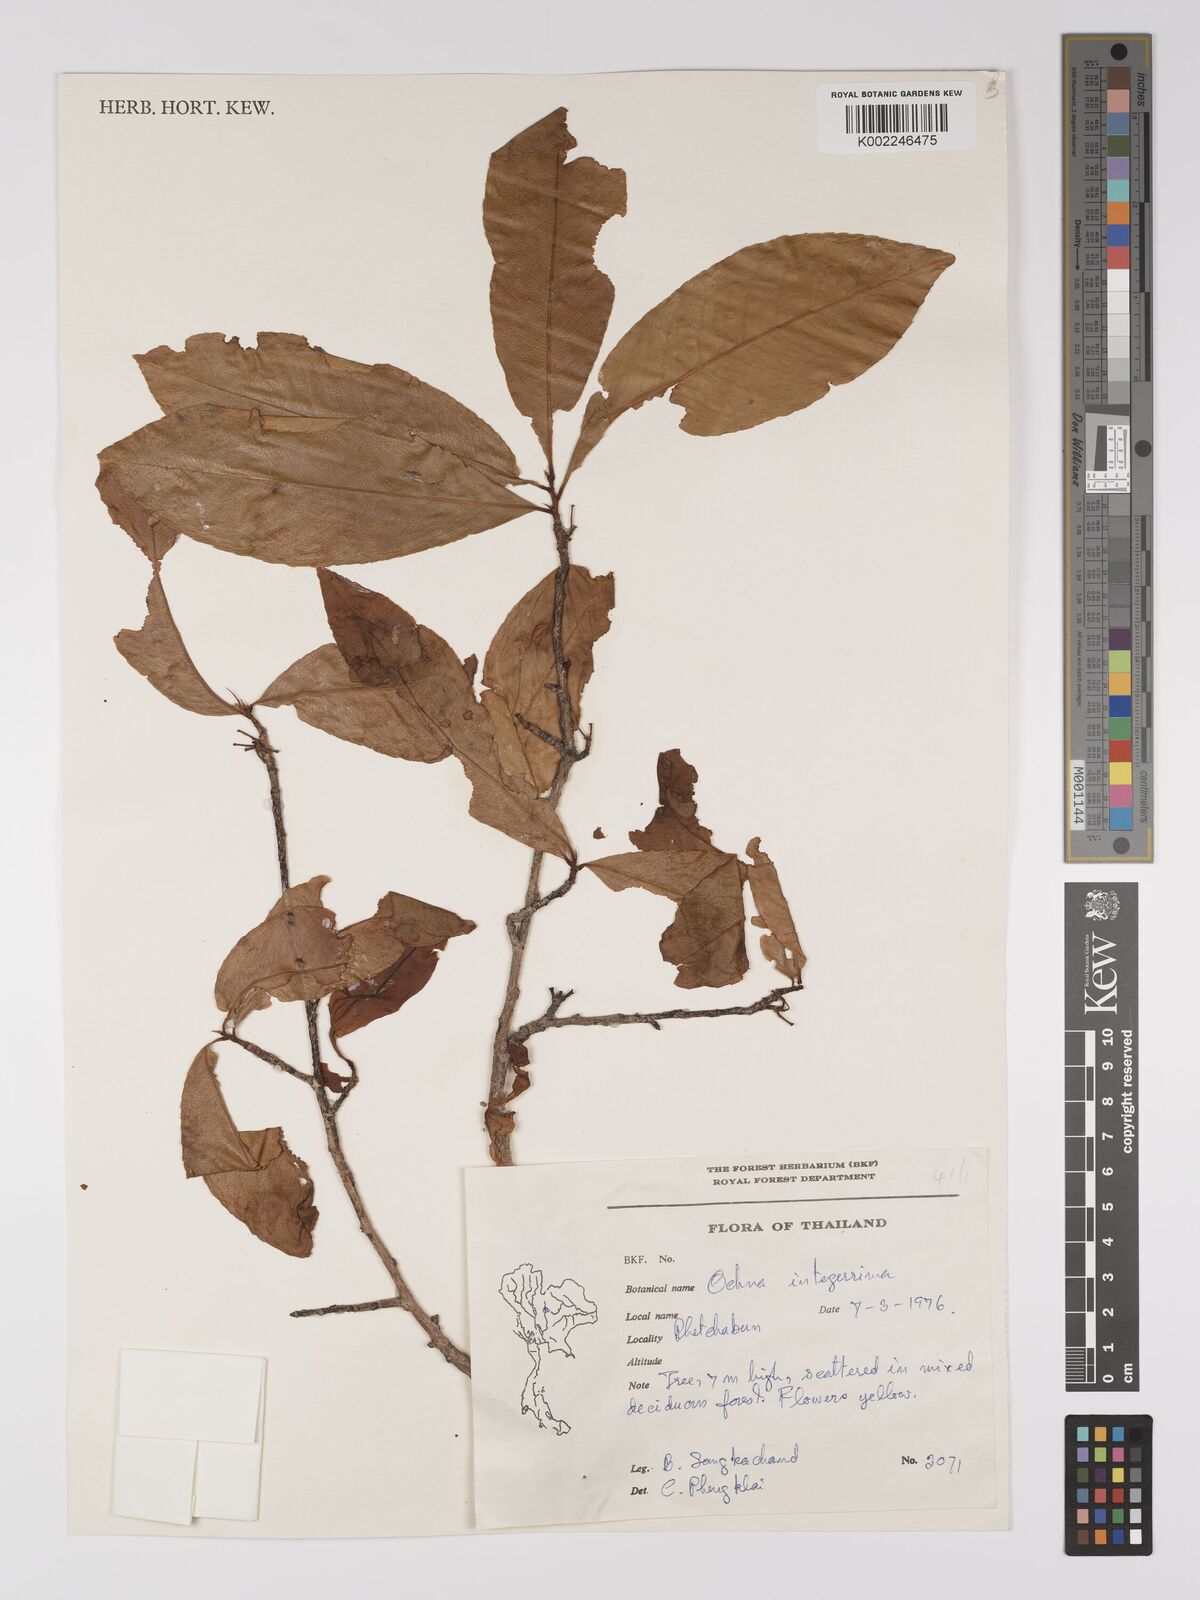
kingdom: Plantae
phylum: Tracheophyta
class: Magnoliopsida
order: Malpighiales
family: Ochnaceae
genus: Ochna
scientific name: Ochna integerrima
